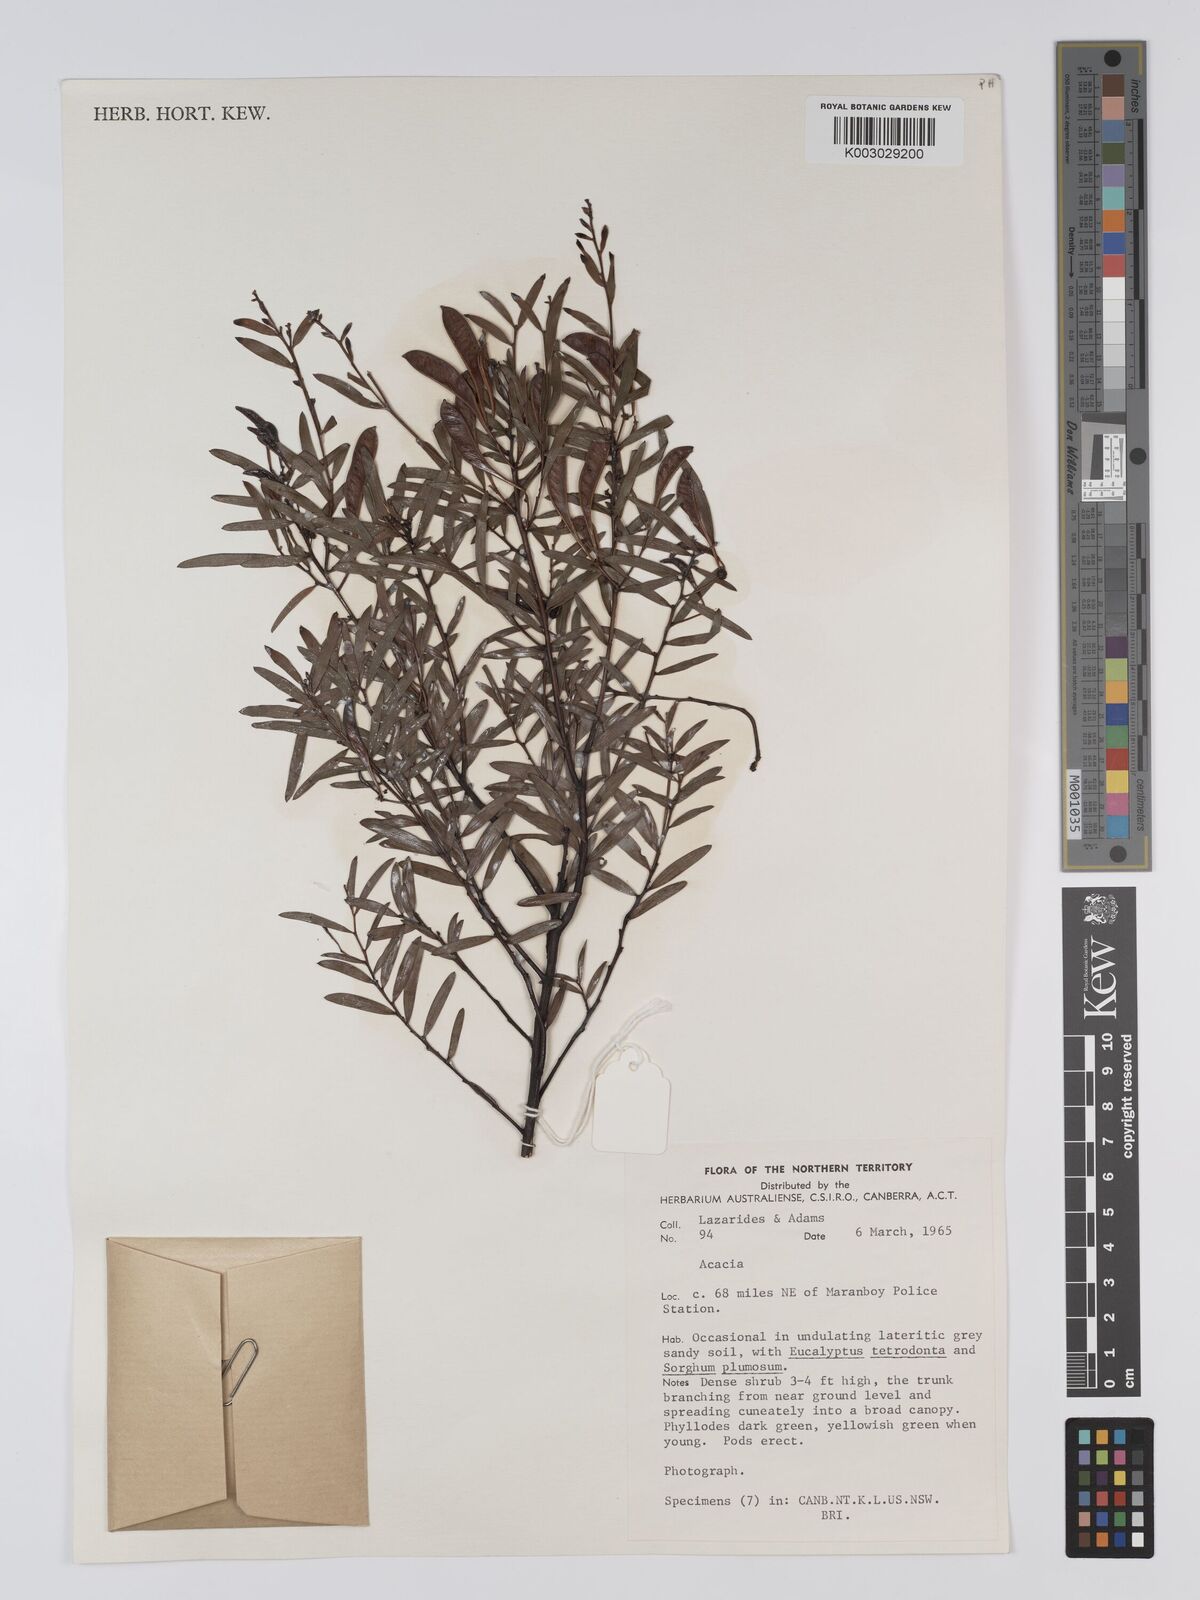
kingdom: Plantae
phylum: Tracheophyta
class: Magnoliopsida
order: Fabales
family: Fabaceae
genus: Acacia
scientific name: Acacia gonocarpa
